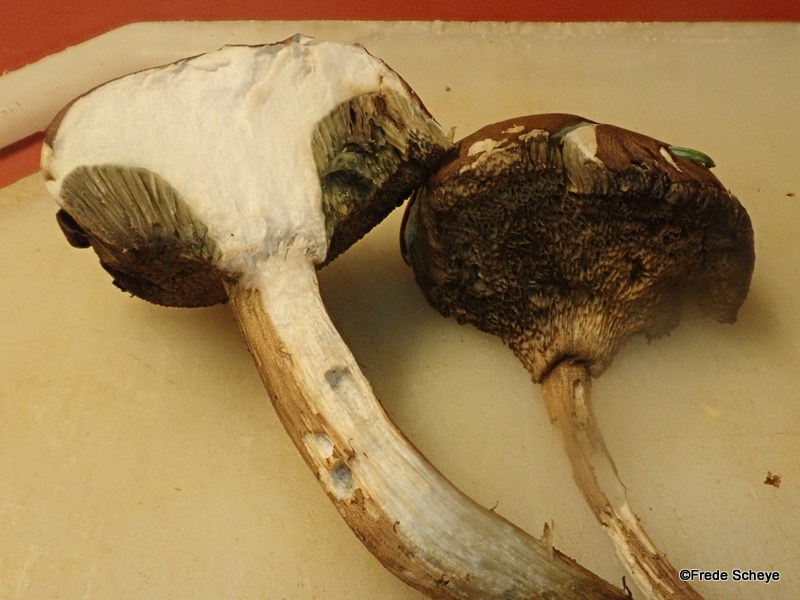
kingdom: Fungi
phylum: Basidiomycota
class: Agaricomycetes
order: Boletales
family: Boletaceae
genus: Imleria
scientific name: Imleria badia
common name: brunstokket rørhat
